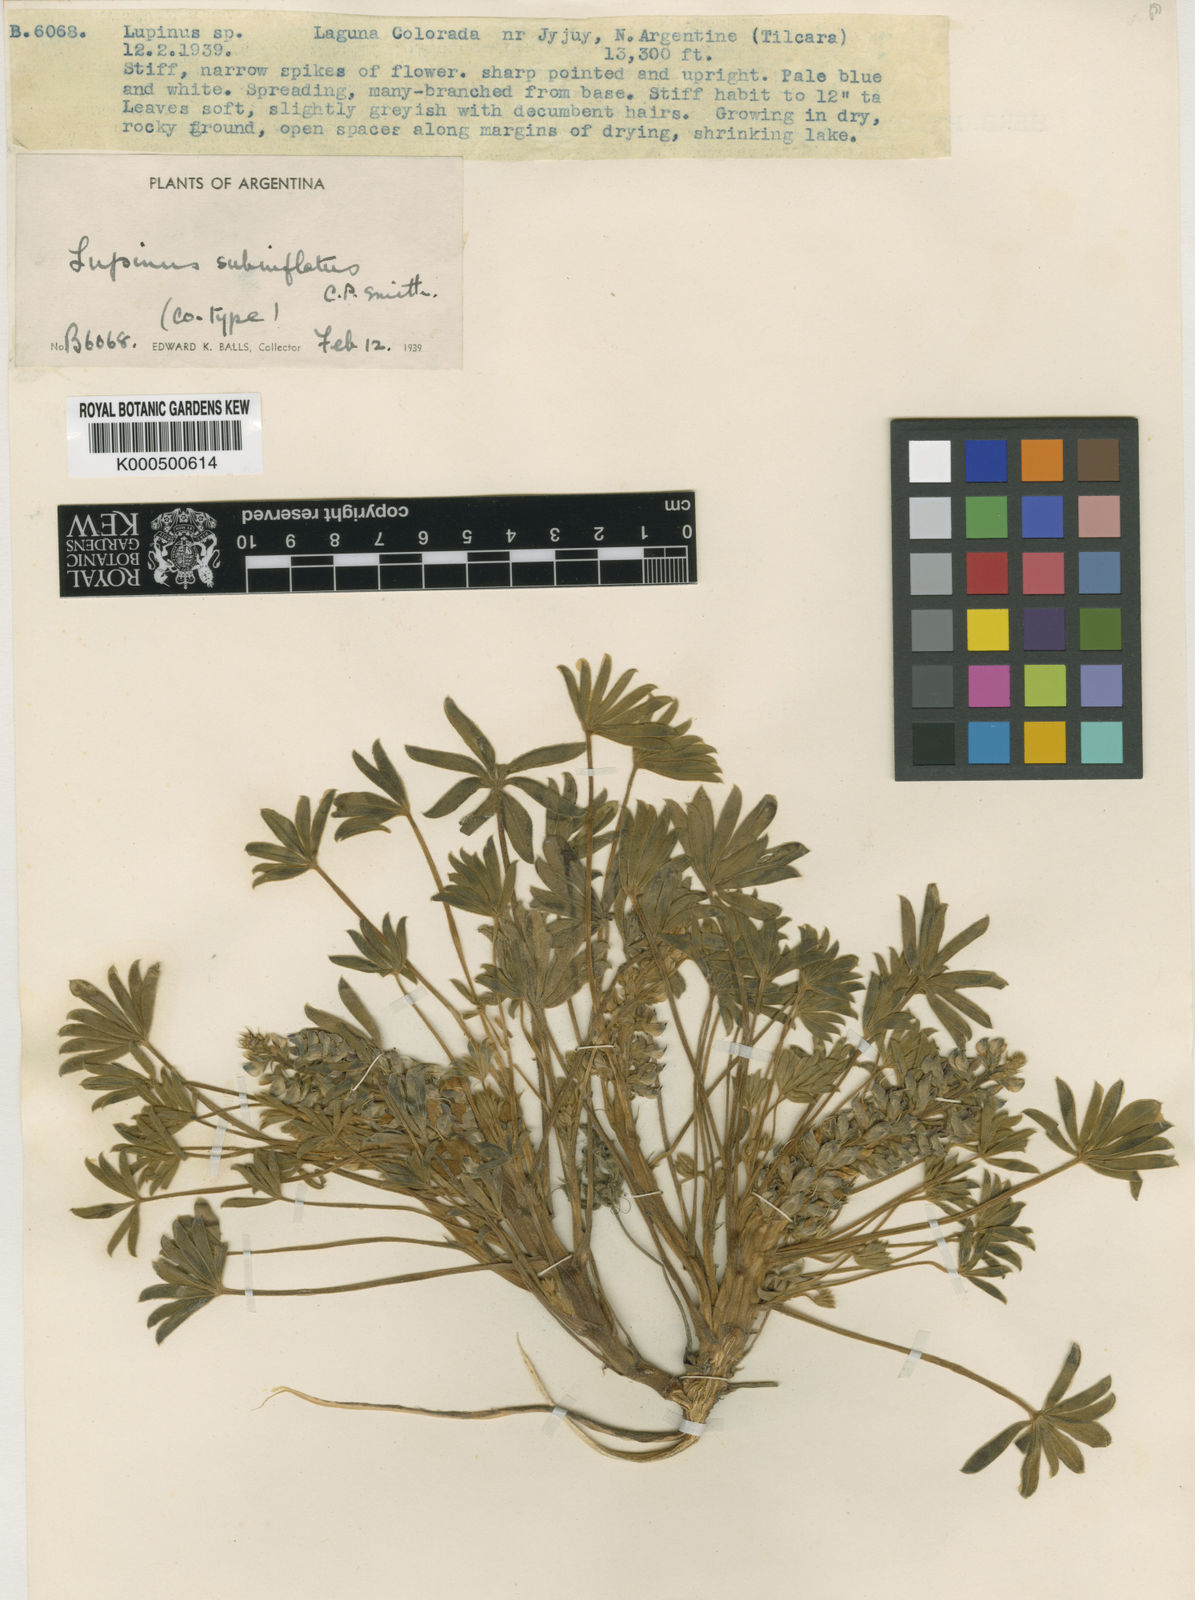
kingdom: Plantae
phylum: Tracheophyta
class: Magnoliopsida
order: Fabales
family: Fabaceae
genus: Lupinus
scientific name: Lupinus subinflatus
